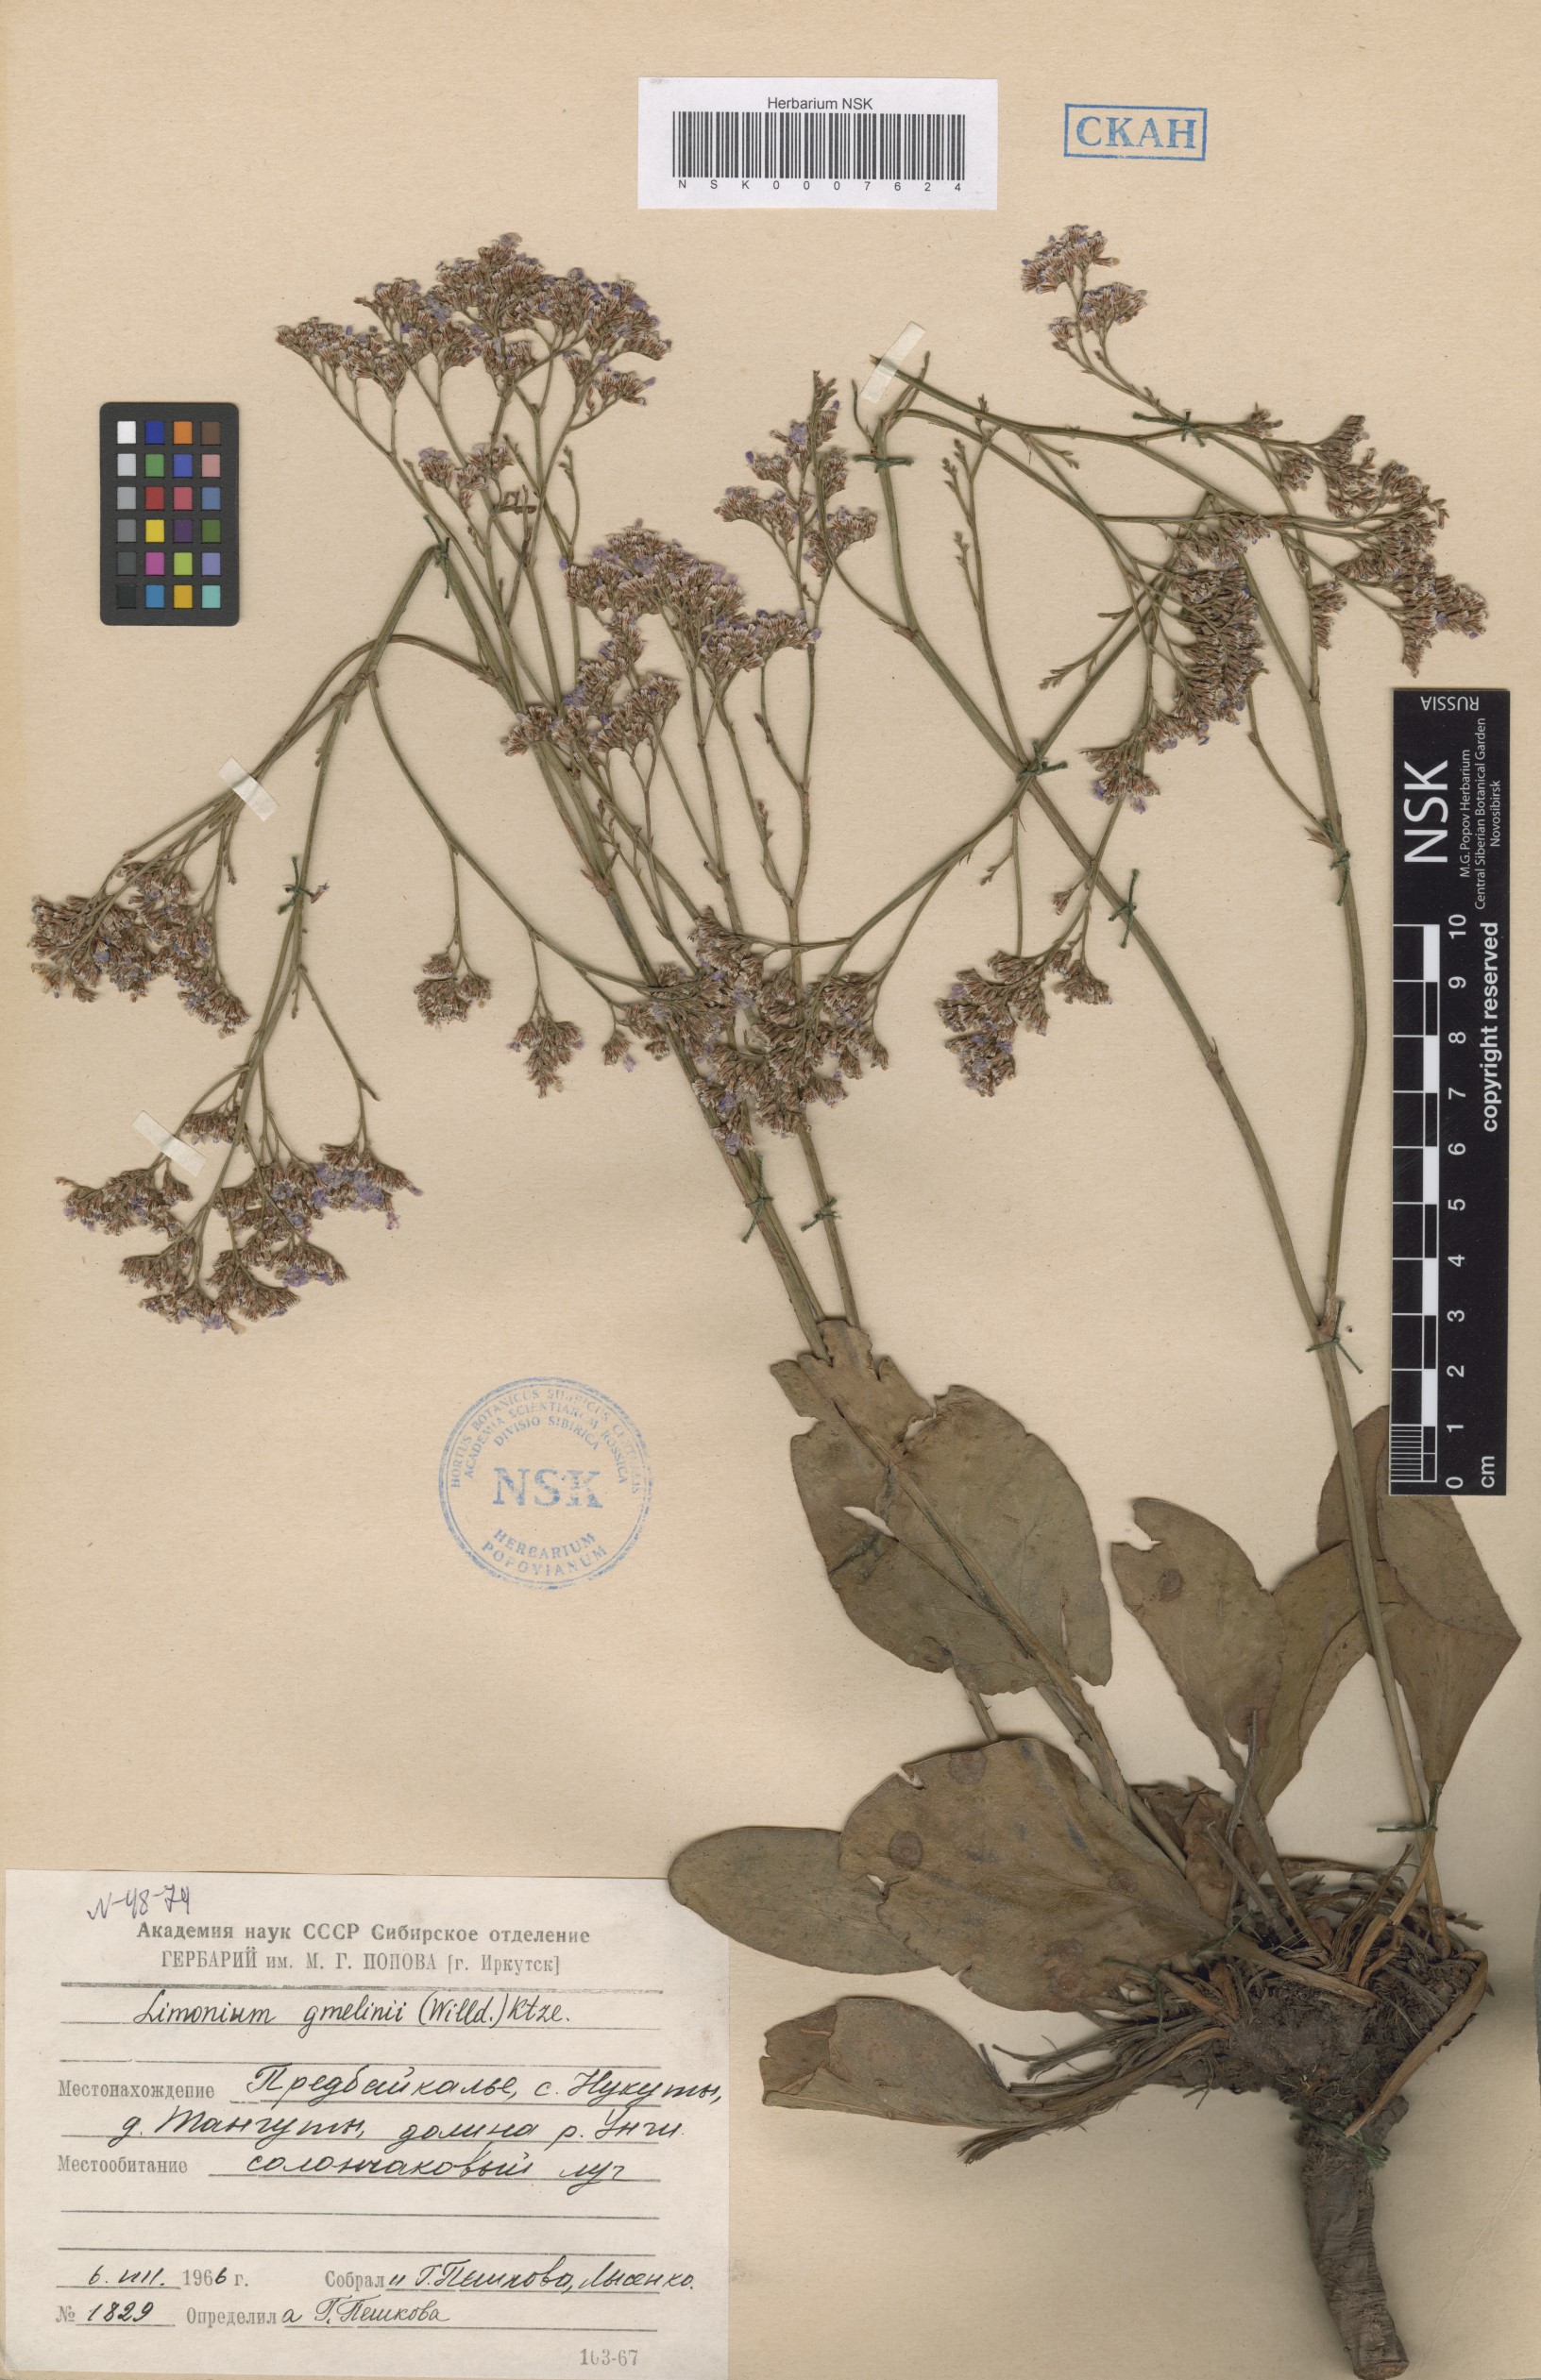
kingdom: Plantae
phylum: Tracheophyta
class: Magnoliopsida
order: Caryophyllales
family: Plumbaginaceae
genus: Limonium
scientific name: Limonium gmelini
